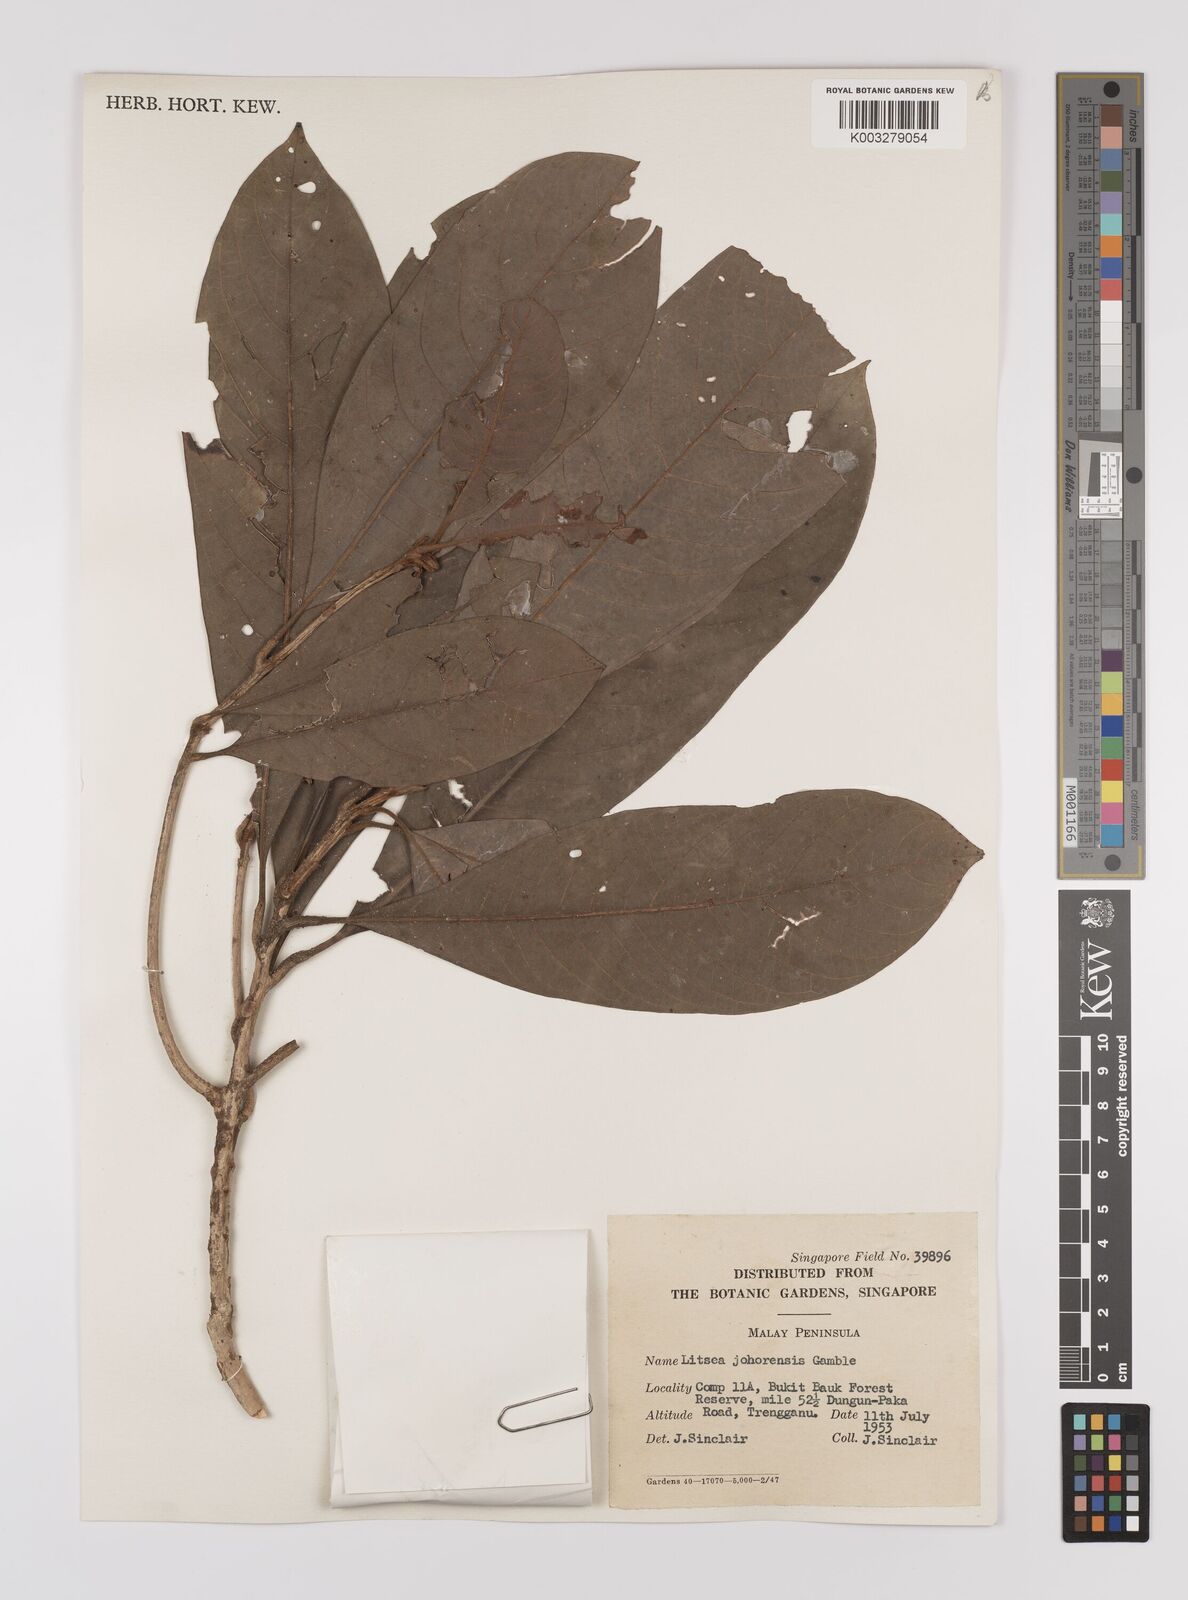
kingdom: Plantae
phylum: Tracheophyta
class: Magnoliopsida
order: Laurales
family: Lauraceae
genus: Litsea
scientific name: Litsea johorensis
